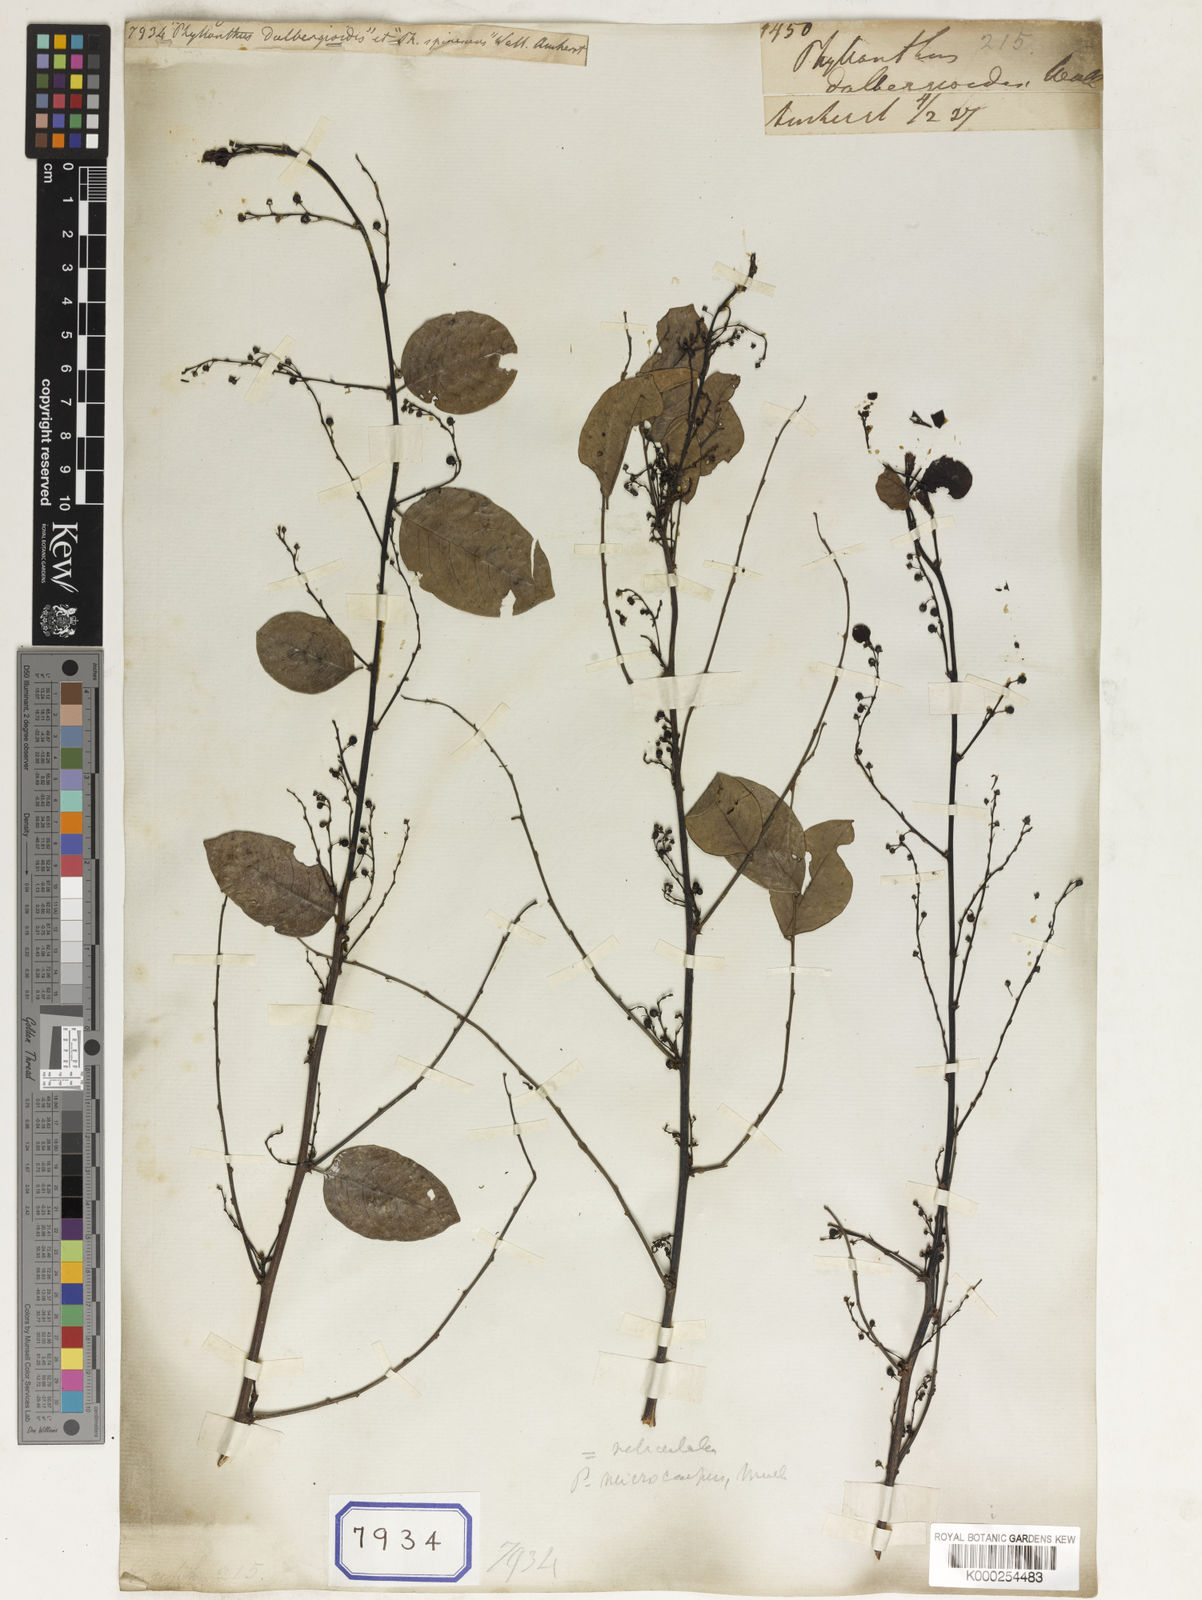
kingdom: Plantae
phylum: Tracheophyta
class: Magnoliopsida
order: Malpighiales
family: Phyllanthaceae
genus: Phyllanthus
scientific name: Phyllanthus
